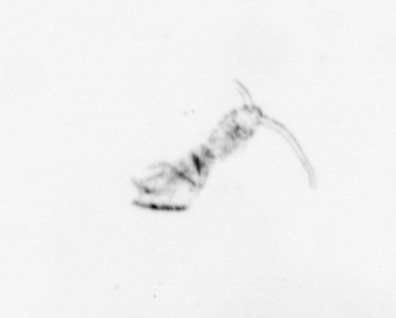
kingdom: Animalia
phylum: Arthropoda
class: Maxillopoda
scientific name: Maxillopoda
